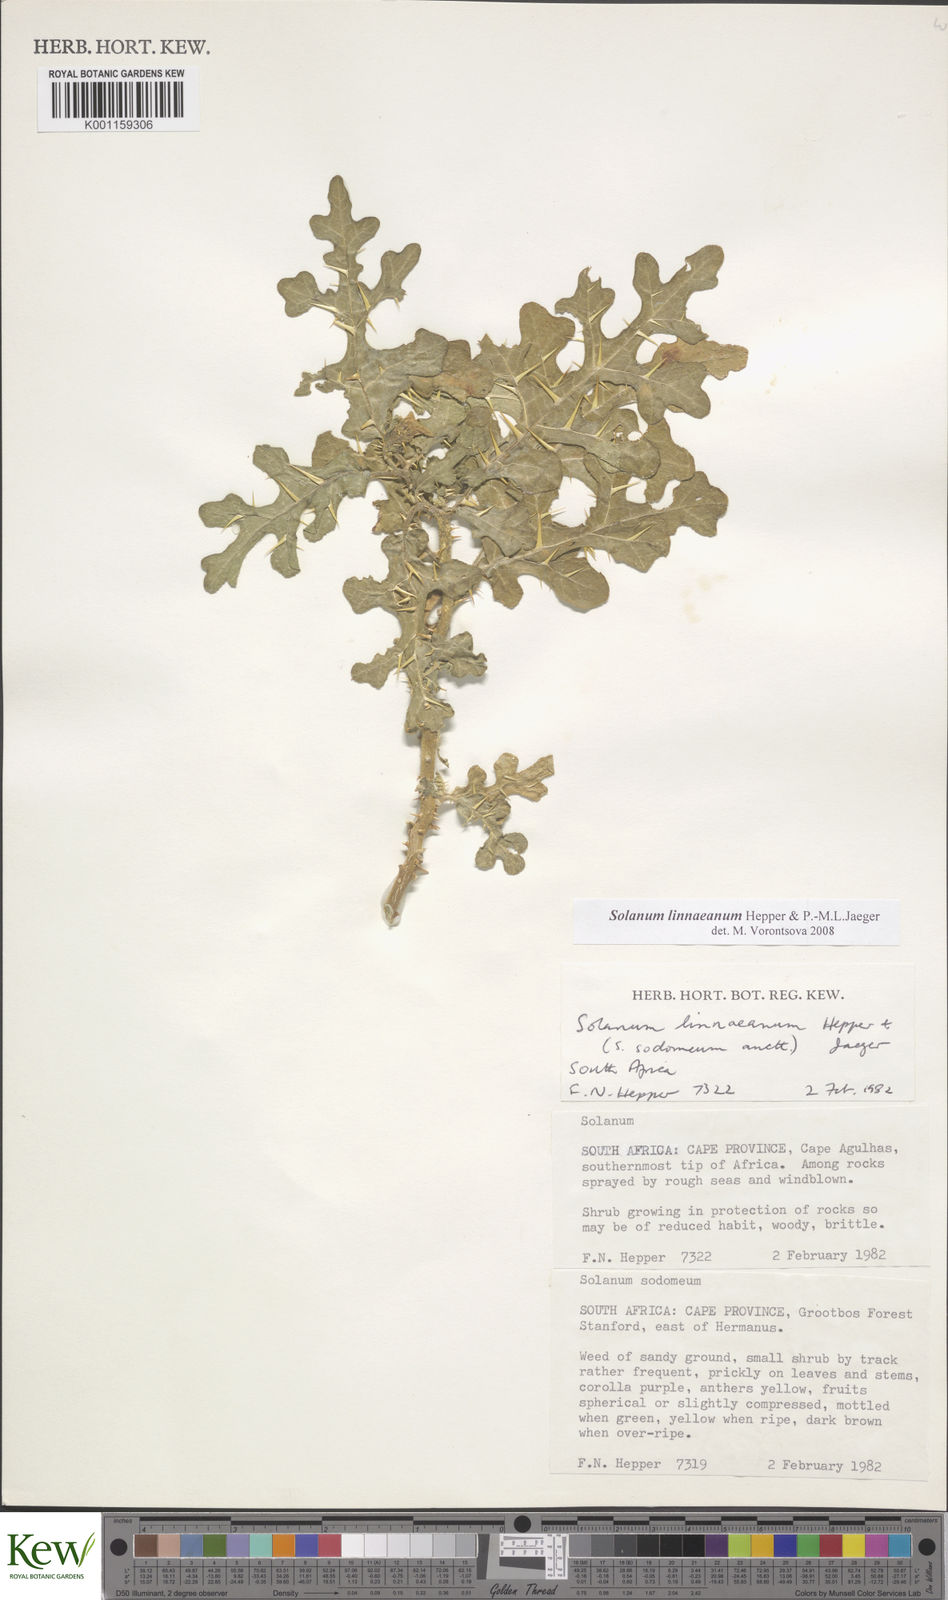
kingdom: Plantae
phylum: Tracheophyta
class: Magnoliopsida
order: Solanales
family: Solanaceae
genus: Solanum
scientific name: Solanum linnaeanum
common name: Nightshade
